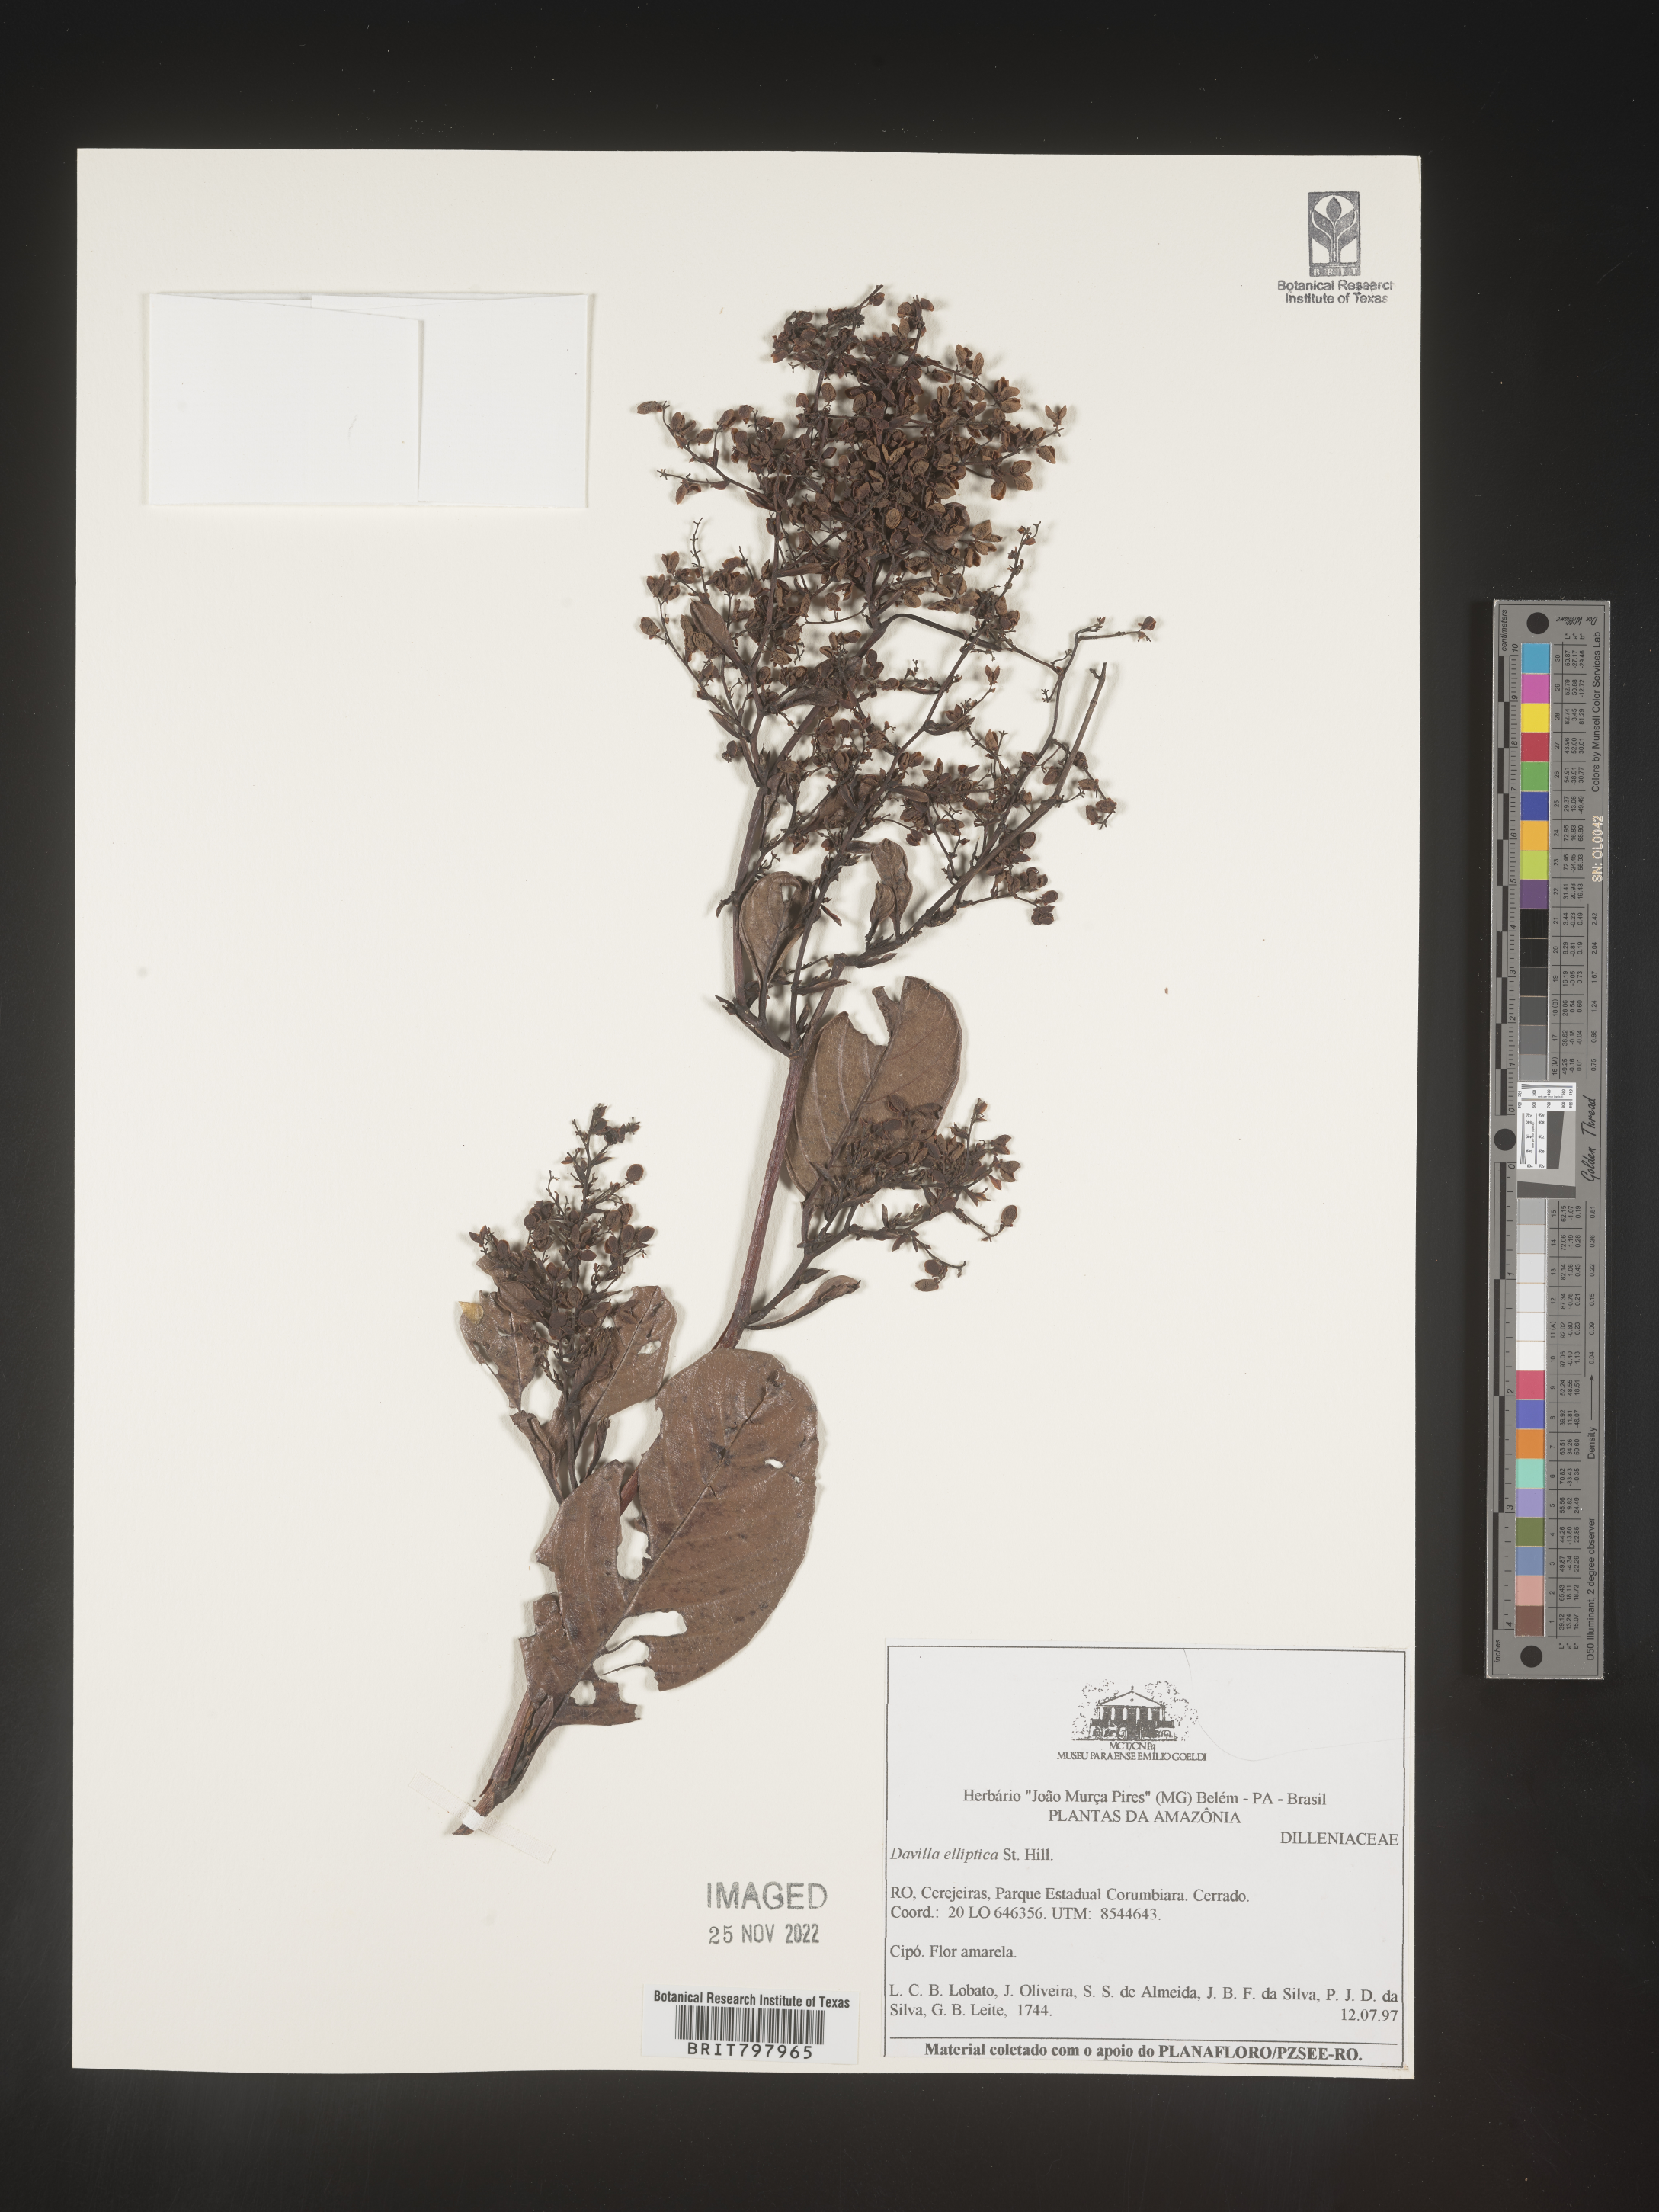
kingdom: Plantae
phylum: Tracheophyta
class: Polypodiopsida
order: Polypodiales
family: Davalliaceae
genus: Davallia
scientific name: Davallia
